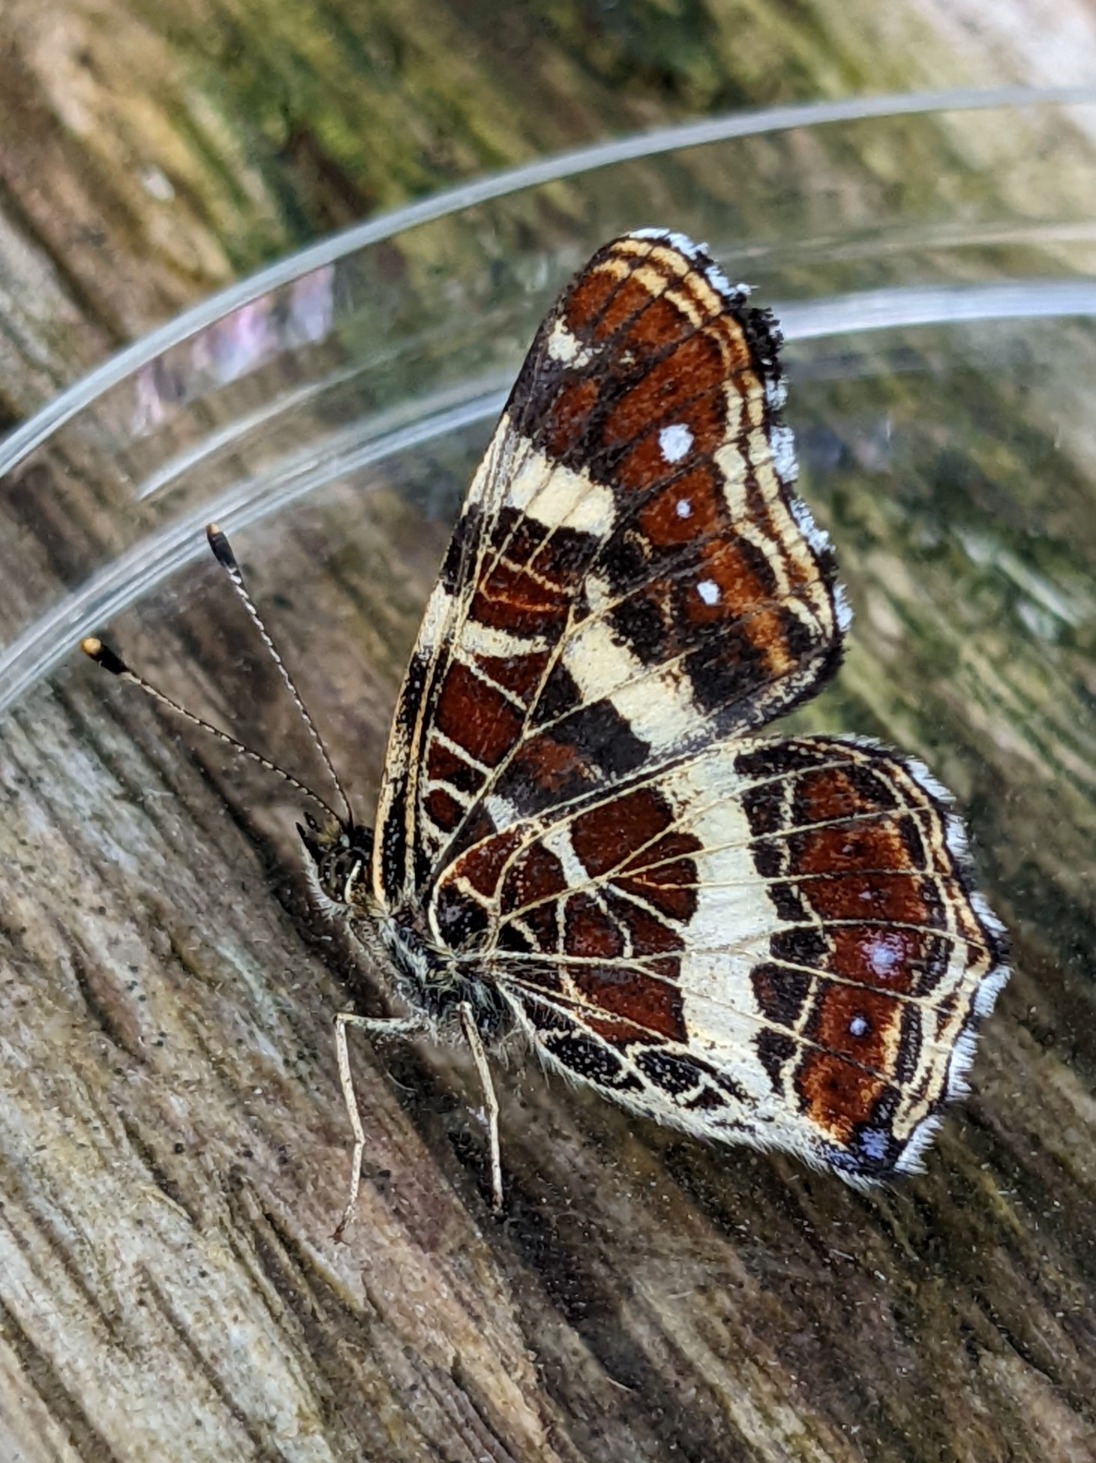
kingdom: Animalia
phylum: Arthropoda
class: Insecta
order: Lepidoptera
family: Nymphalidae
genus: Araschnia
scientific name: Araschnia levana
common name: Nældesommerfugl
